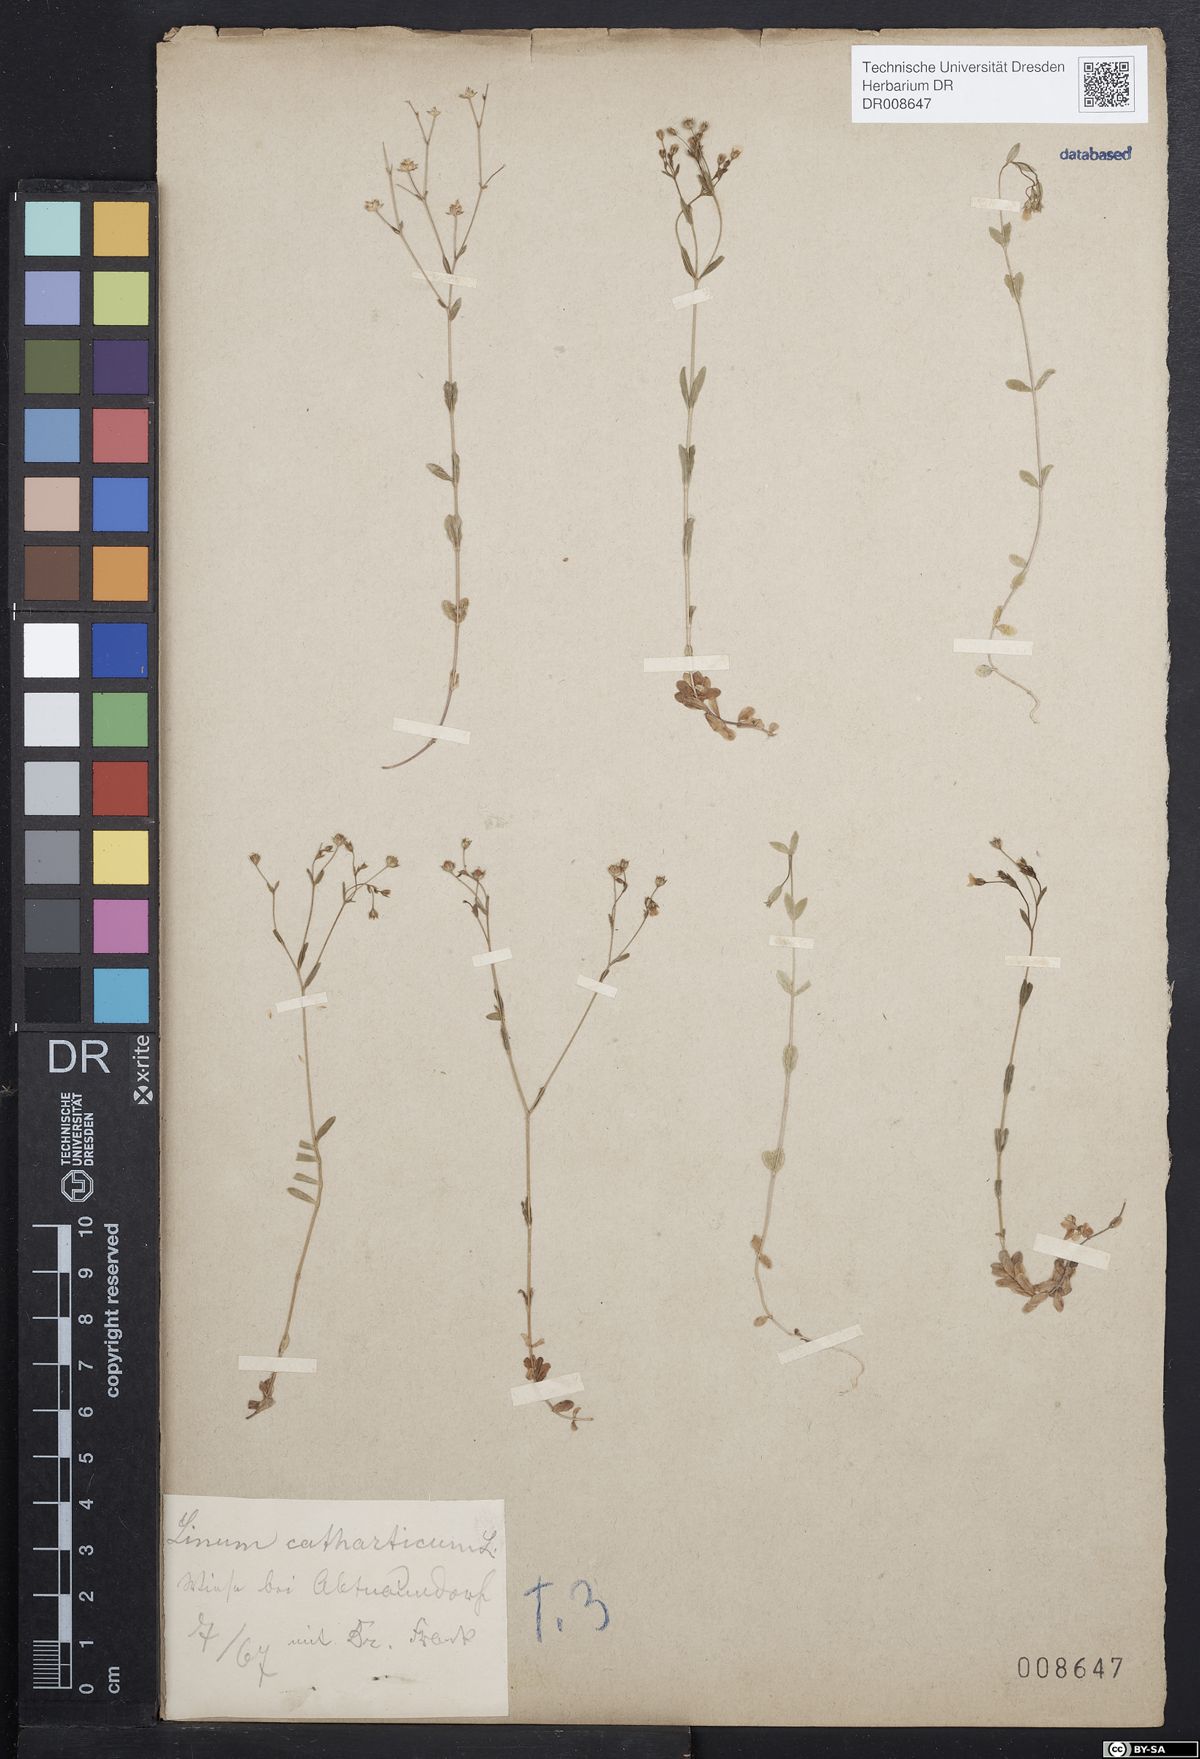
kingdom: Plantae
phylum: Tracheophyta
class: Magnoliopsida
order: Malpighiales
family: Linaceae
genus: Linum
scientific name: Linum catharticum
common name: Fairy flax
